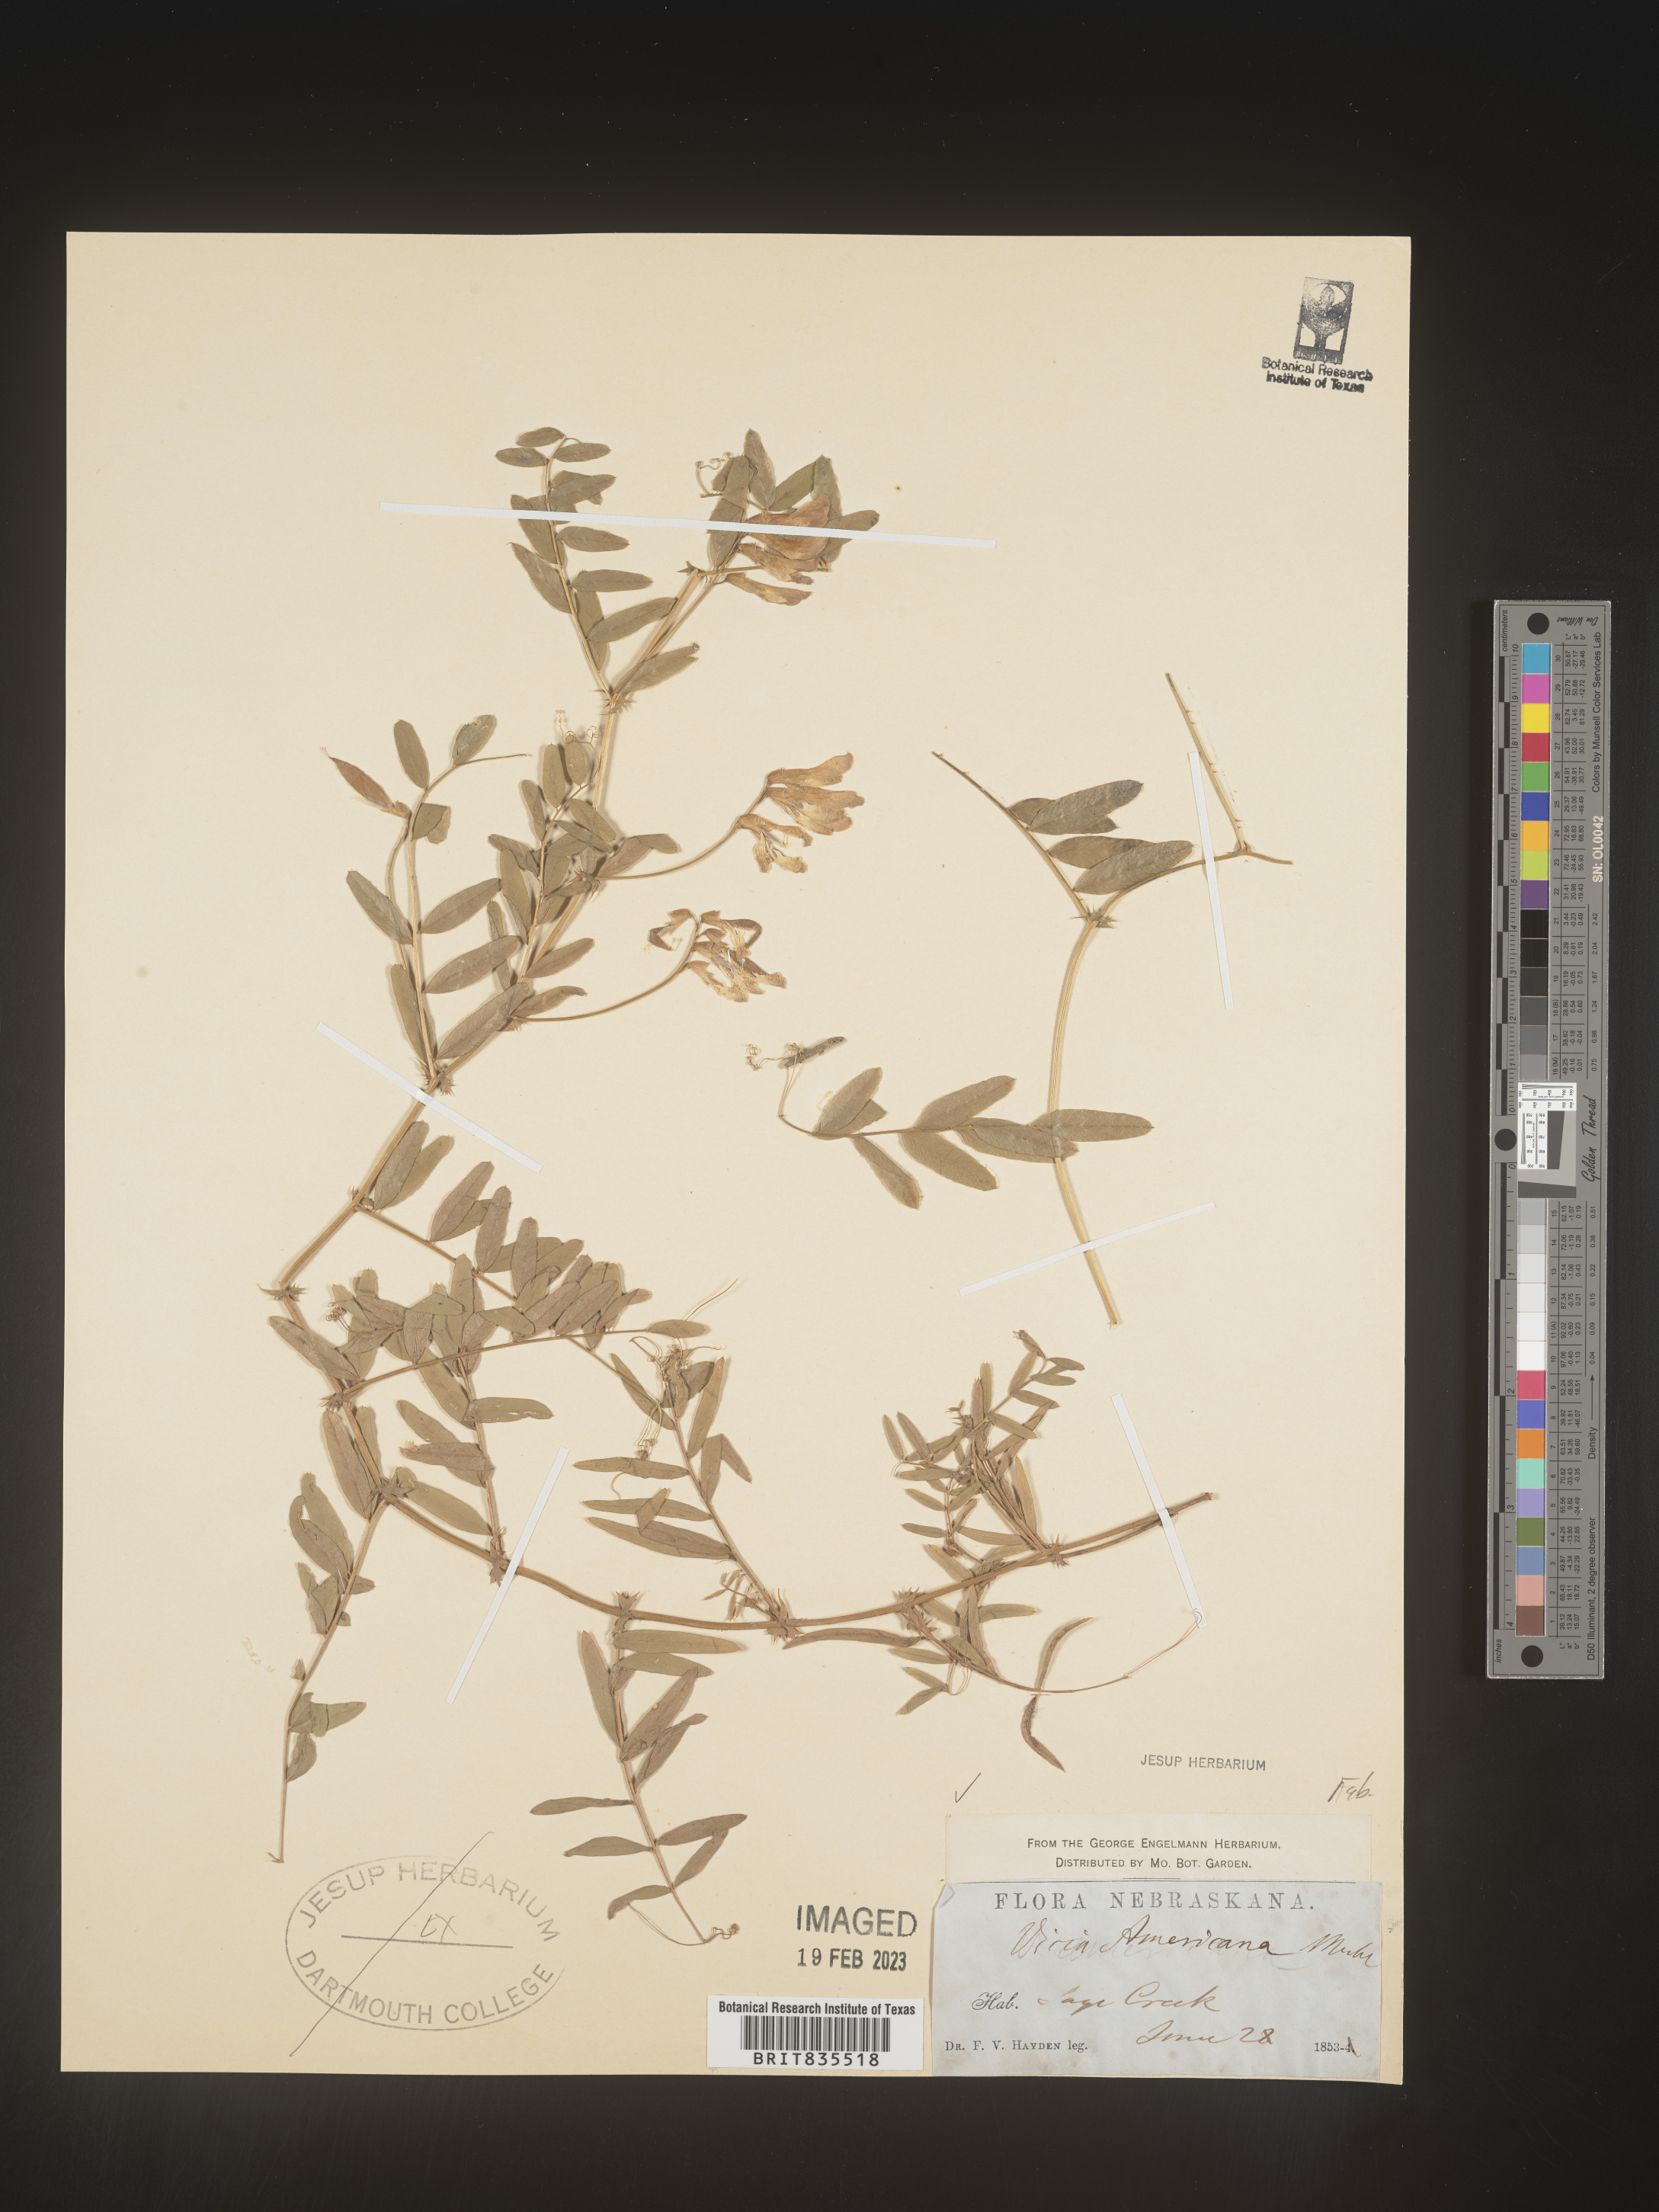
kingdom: Plantae
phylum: Tracheophyta
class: Magnoliopsida
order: Fabales
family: Fabaceae
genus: Vicia
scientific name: Vicia americana
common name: American vetch
